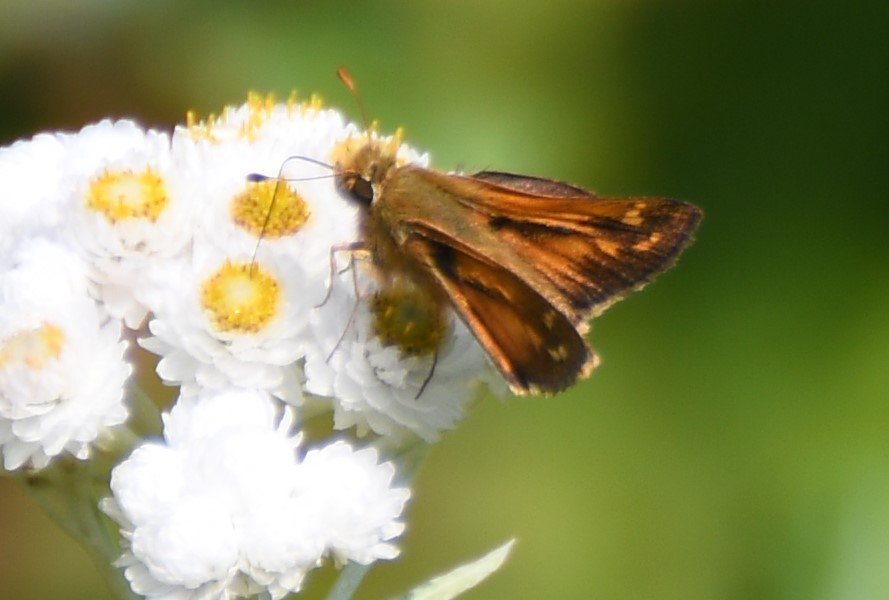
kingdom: Animalia
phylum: Arthropoda
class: Insecta
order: Lepidoptera
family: Hesperiidae
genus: Hesperia
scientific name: Hesperia comma
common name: Common Branded Skipper
